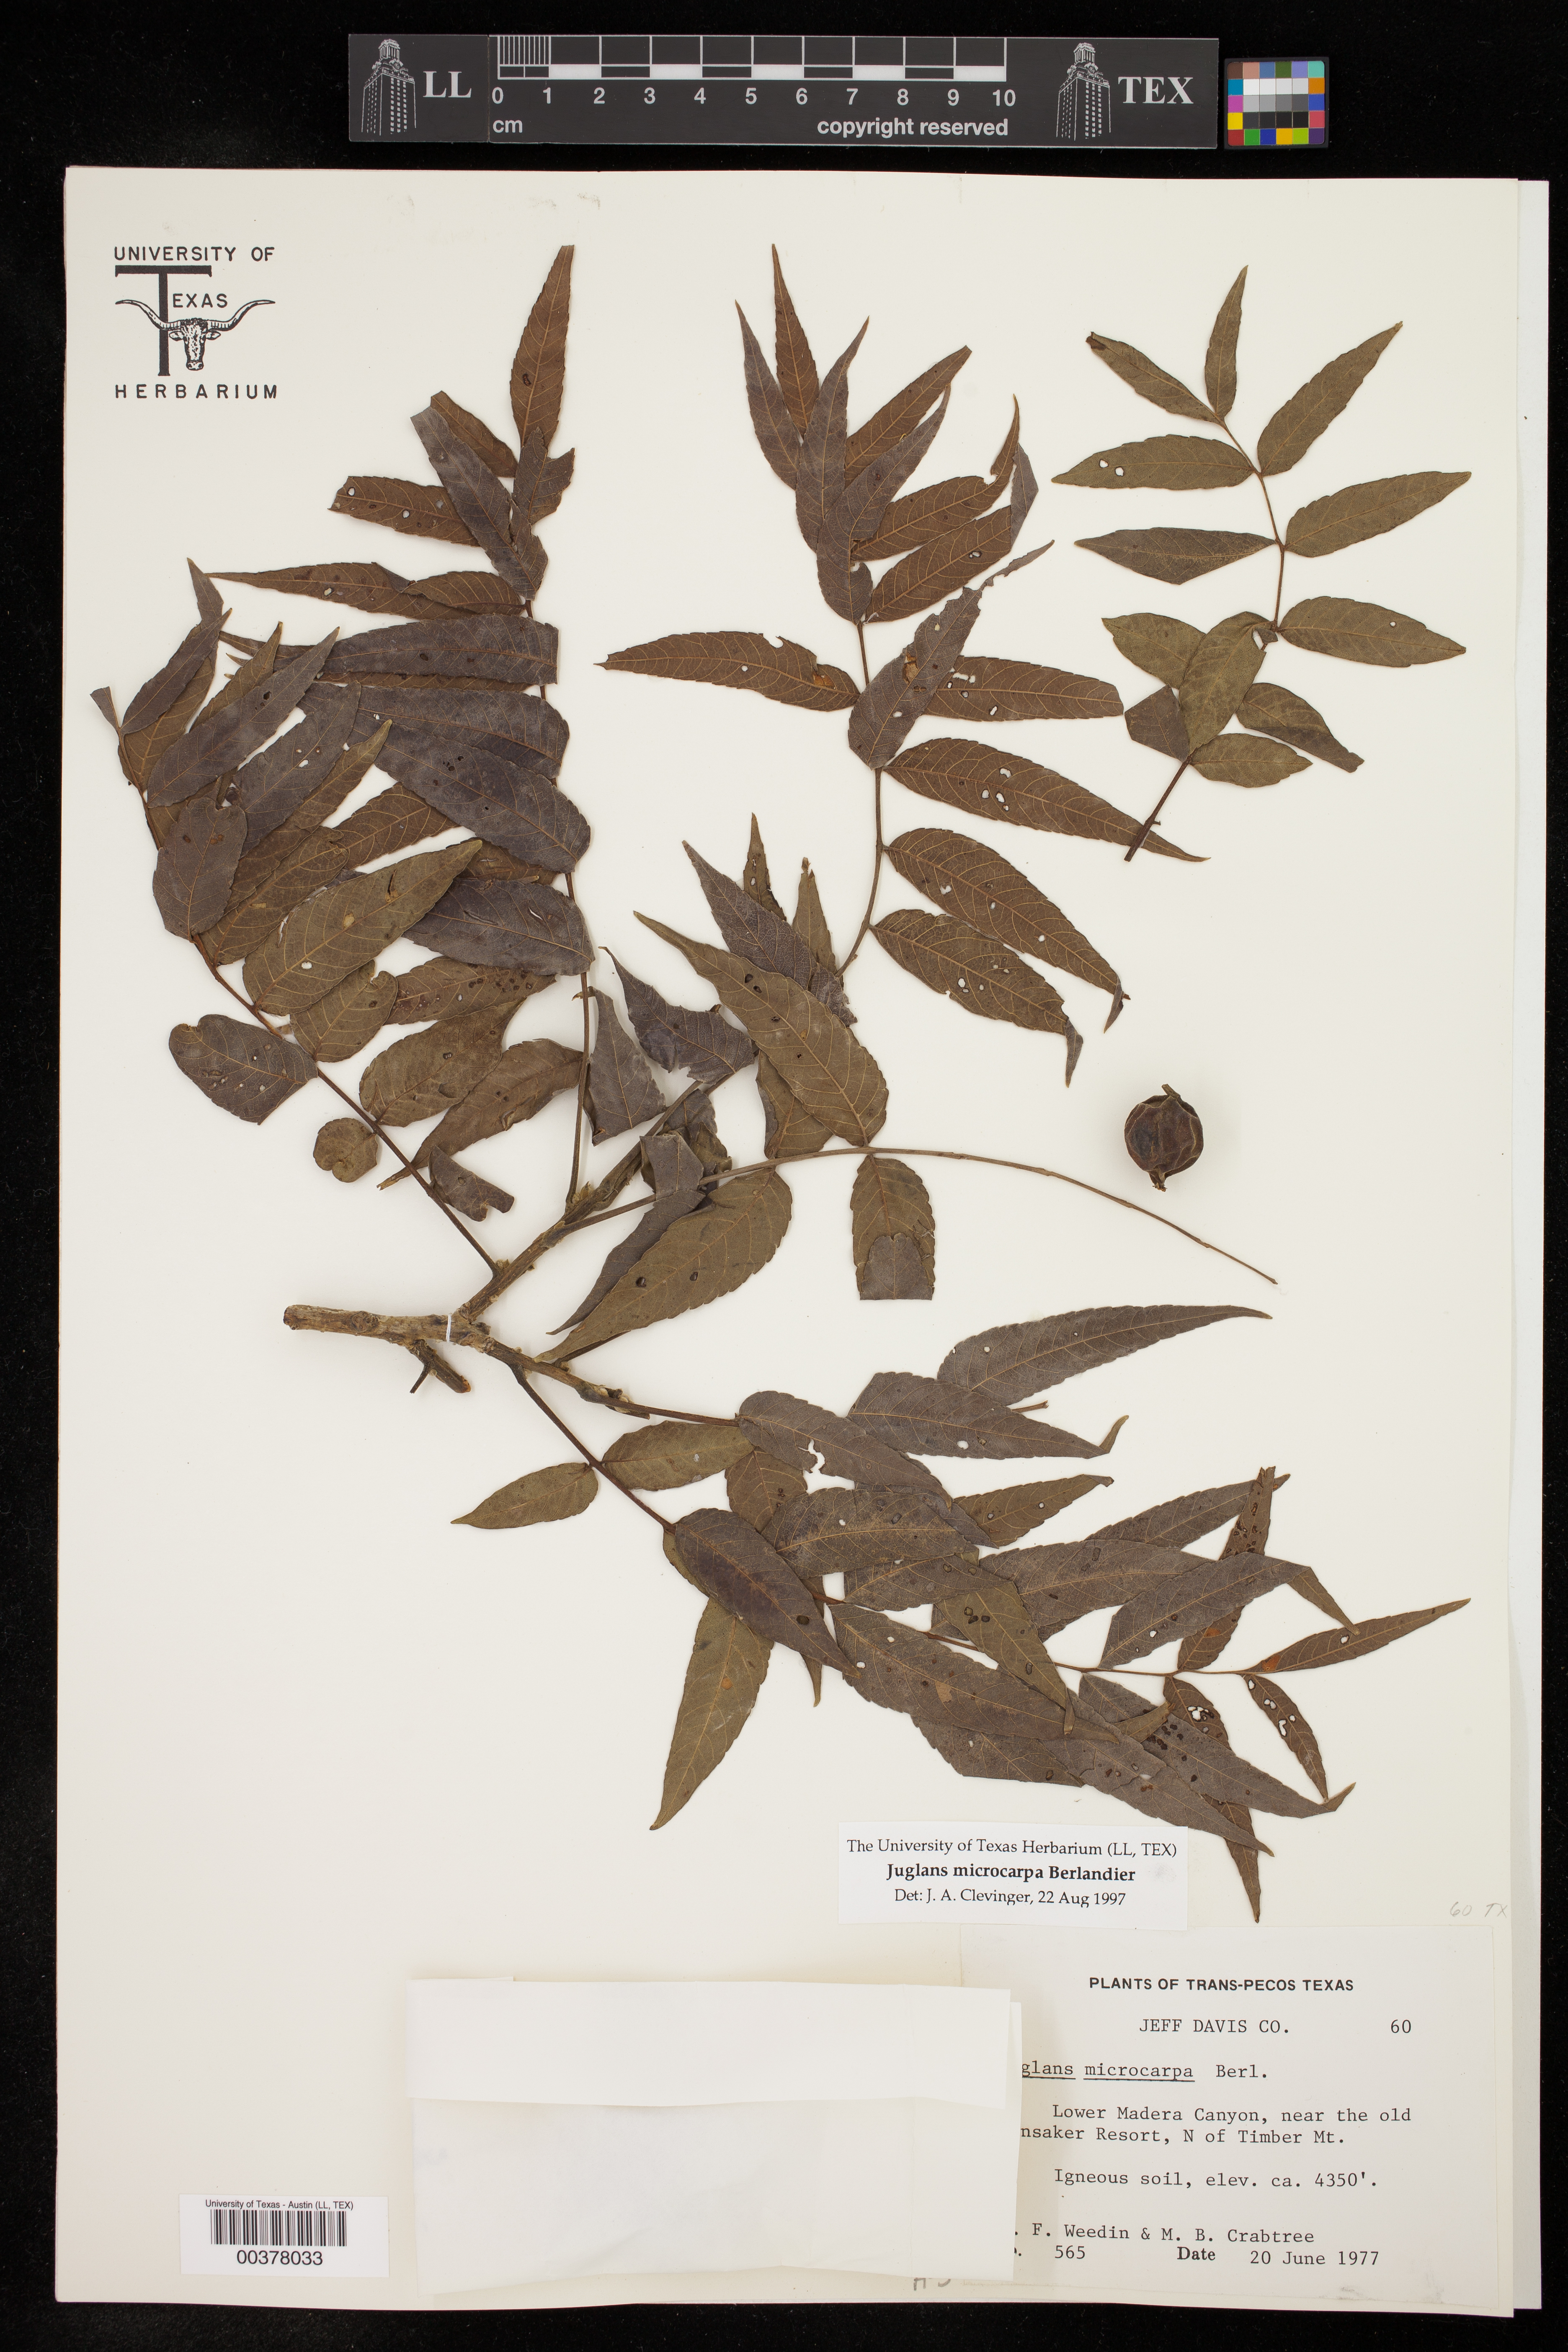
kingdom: Plantae
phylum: Tracheophyta
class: Magnoliopsida
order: Fagales
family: Juglandaceae
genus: Juglans
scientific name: Juglans microcarpa
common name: Texas walnut
